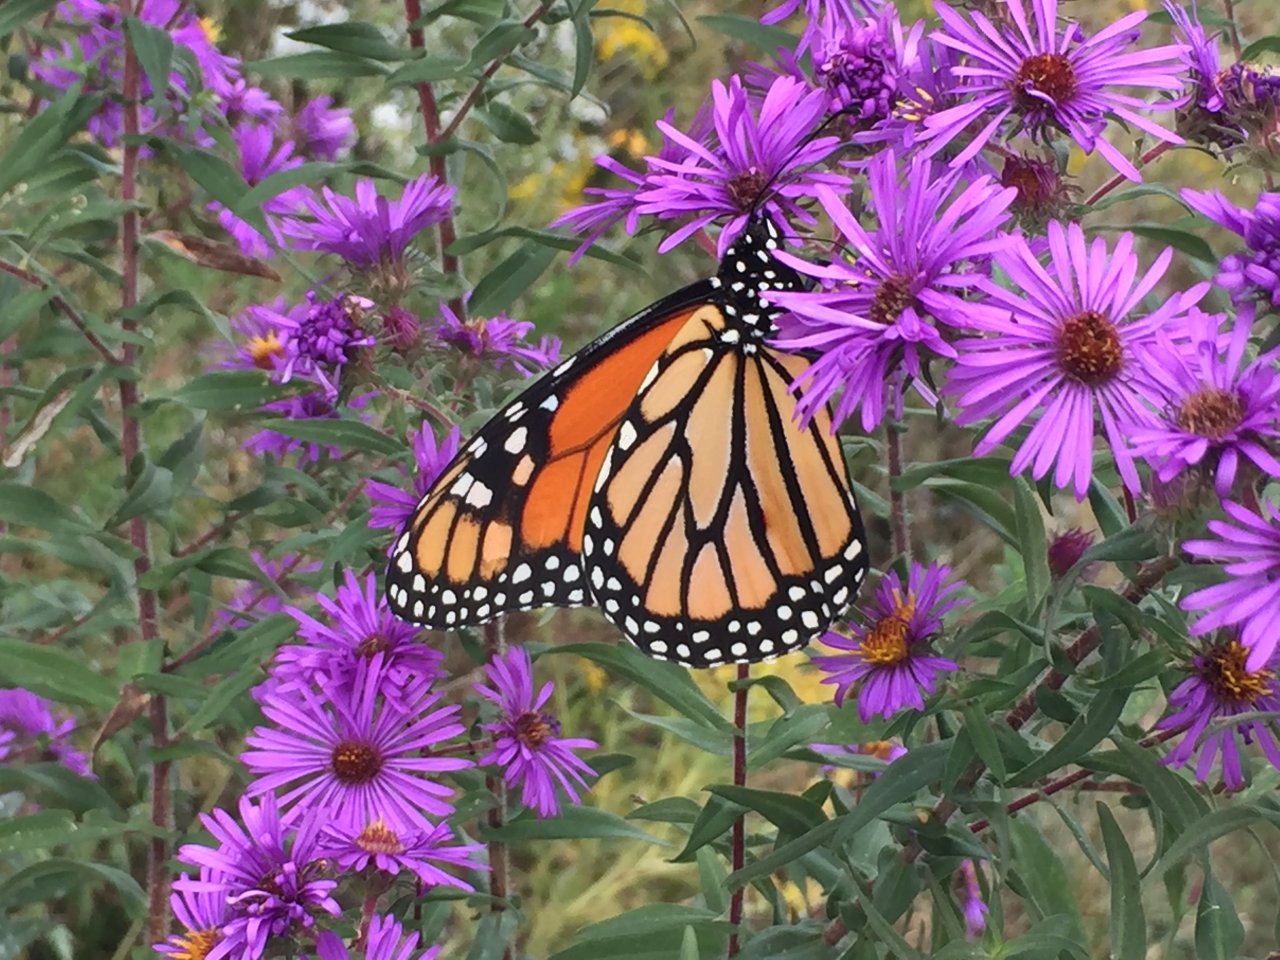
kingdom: Animalia
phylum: Arthropoda
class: Insecta
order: Lepidoptera
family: Nymphalidae
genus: Danaus
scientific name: Danaus plexippus
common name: Monarch
